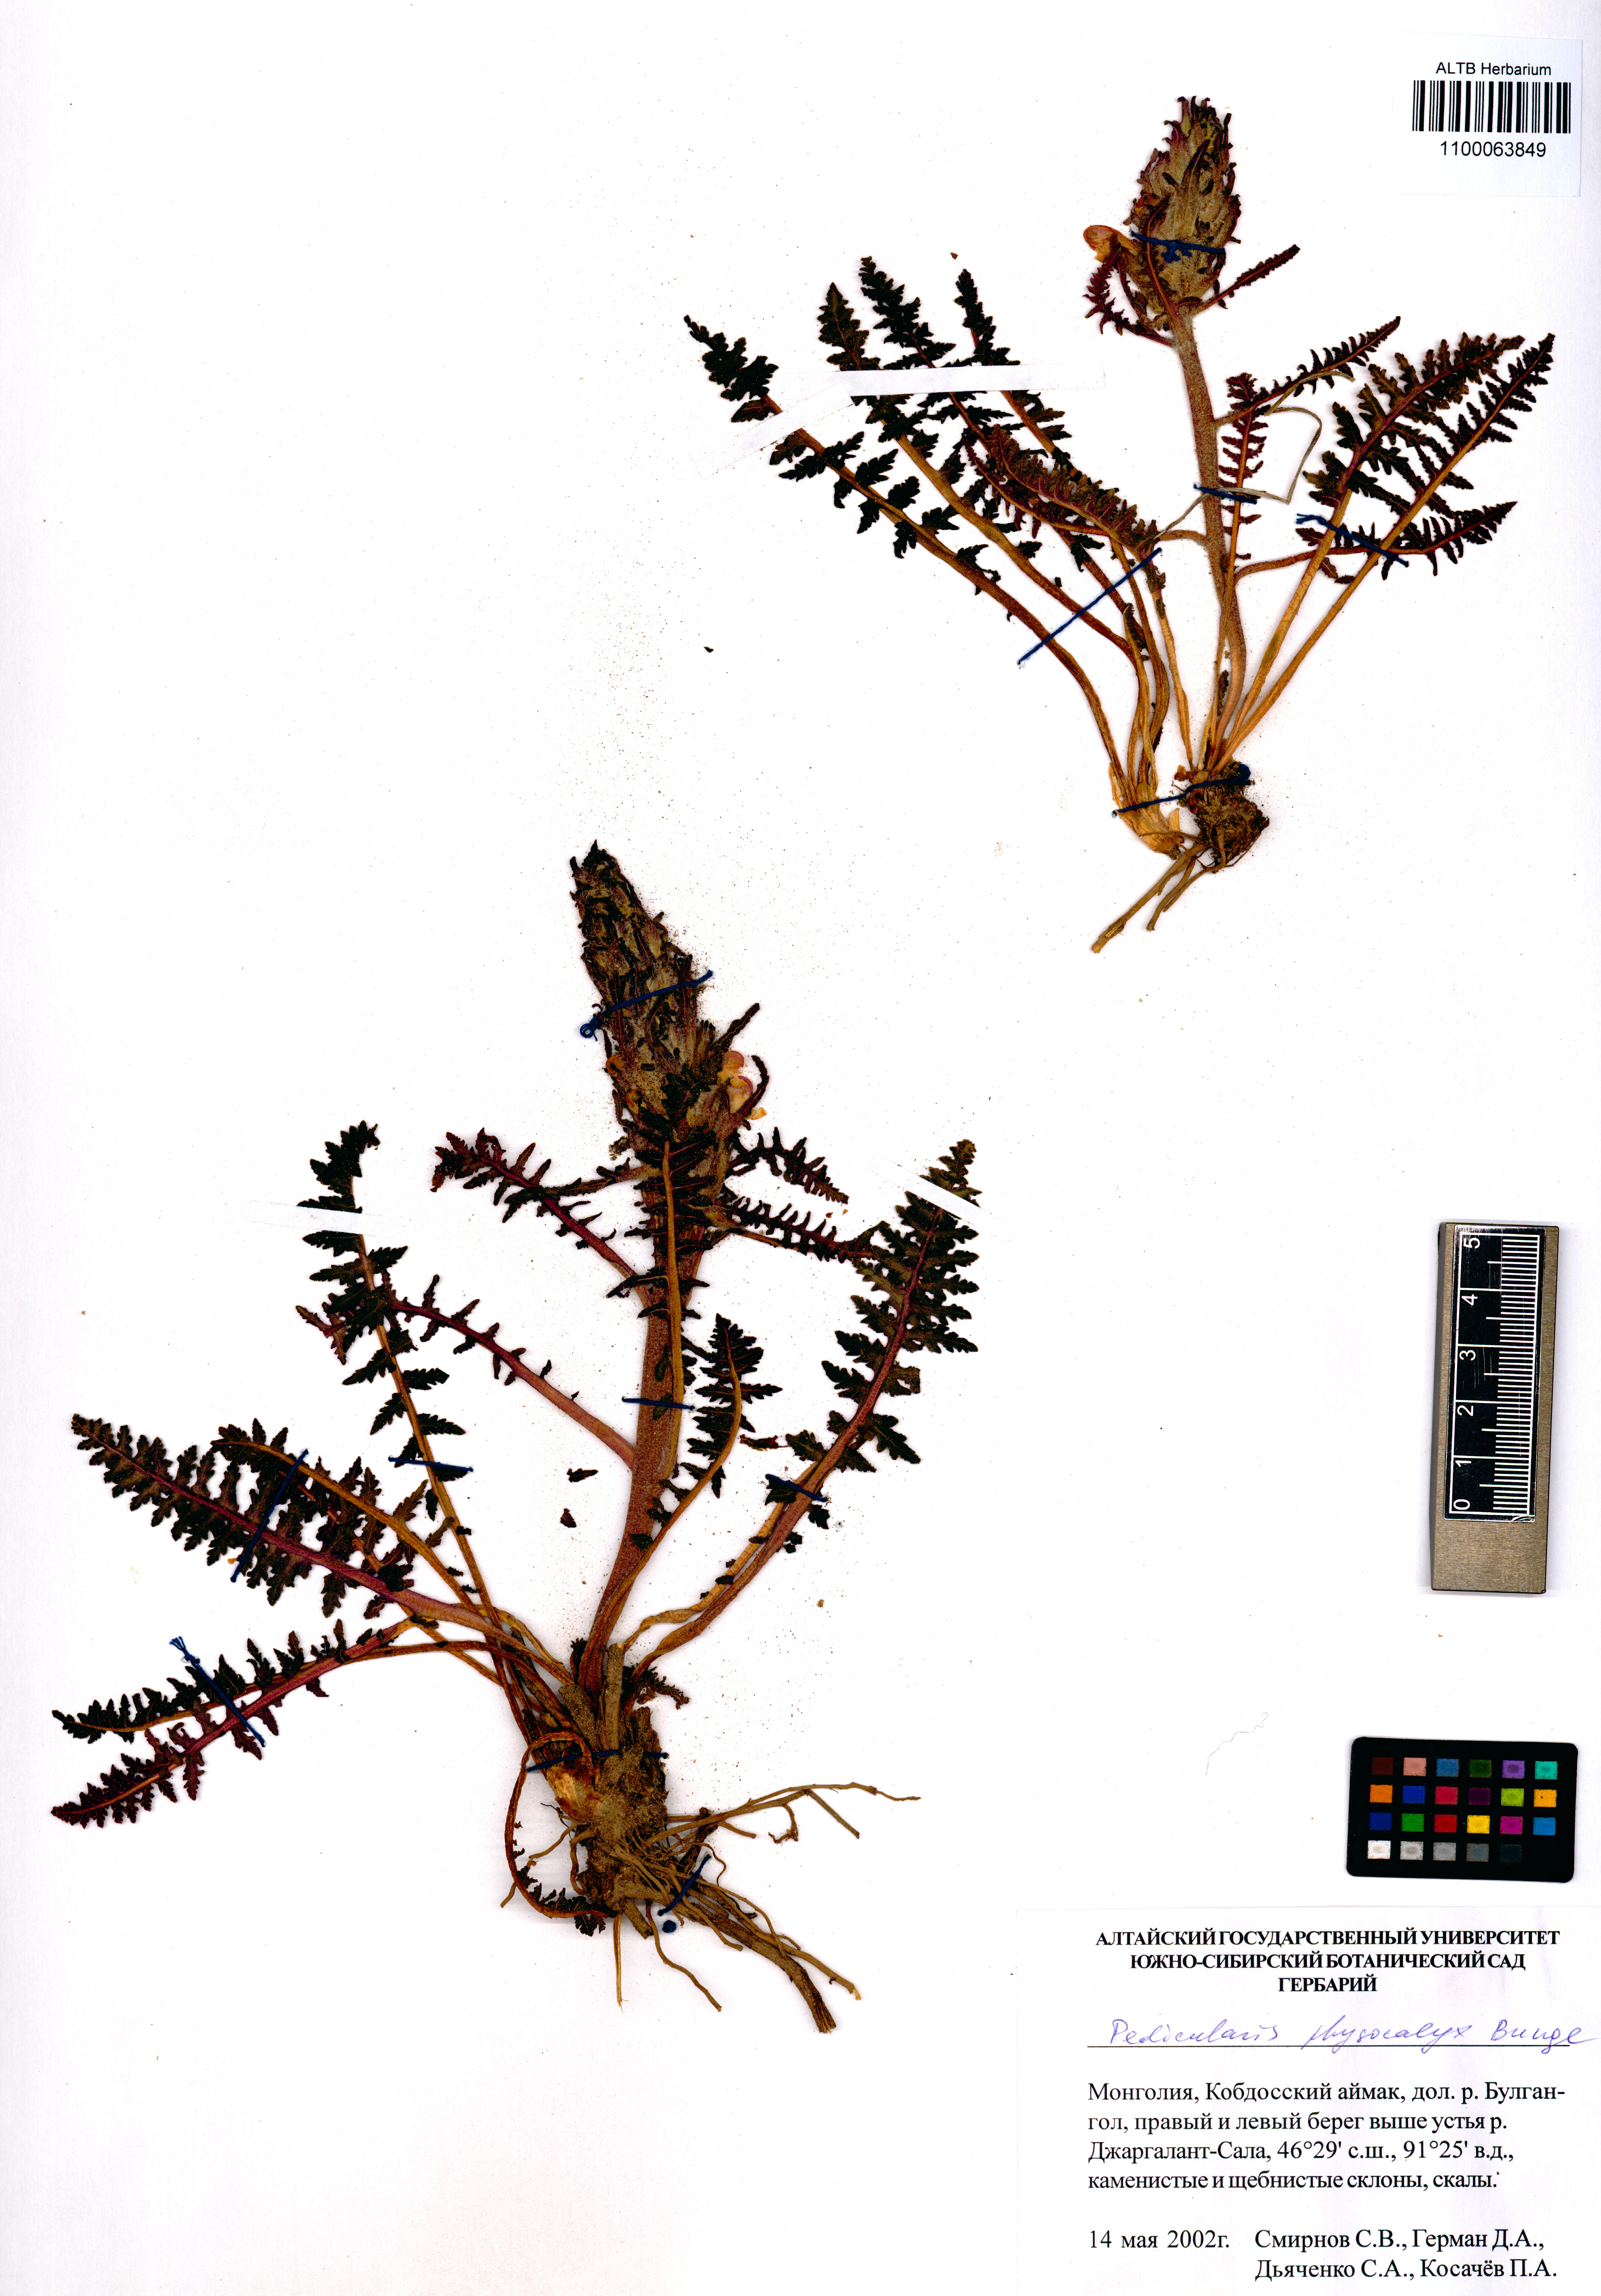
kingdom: Plantae
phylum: Tracheophyta
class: Magnoliopsida
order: Lamiales
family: Orobanchaceae
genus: Pedicularis
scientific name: Pedicularis physocalyx
